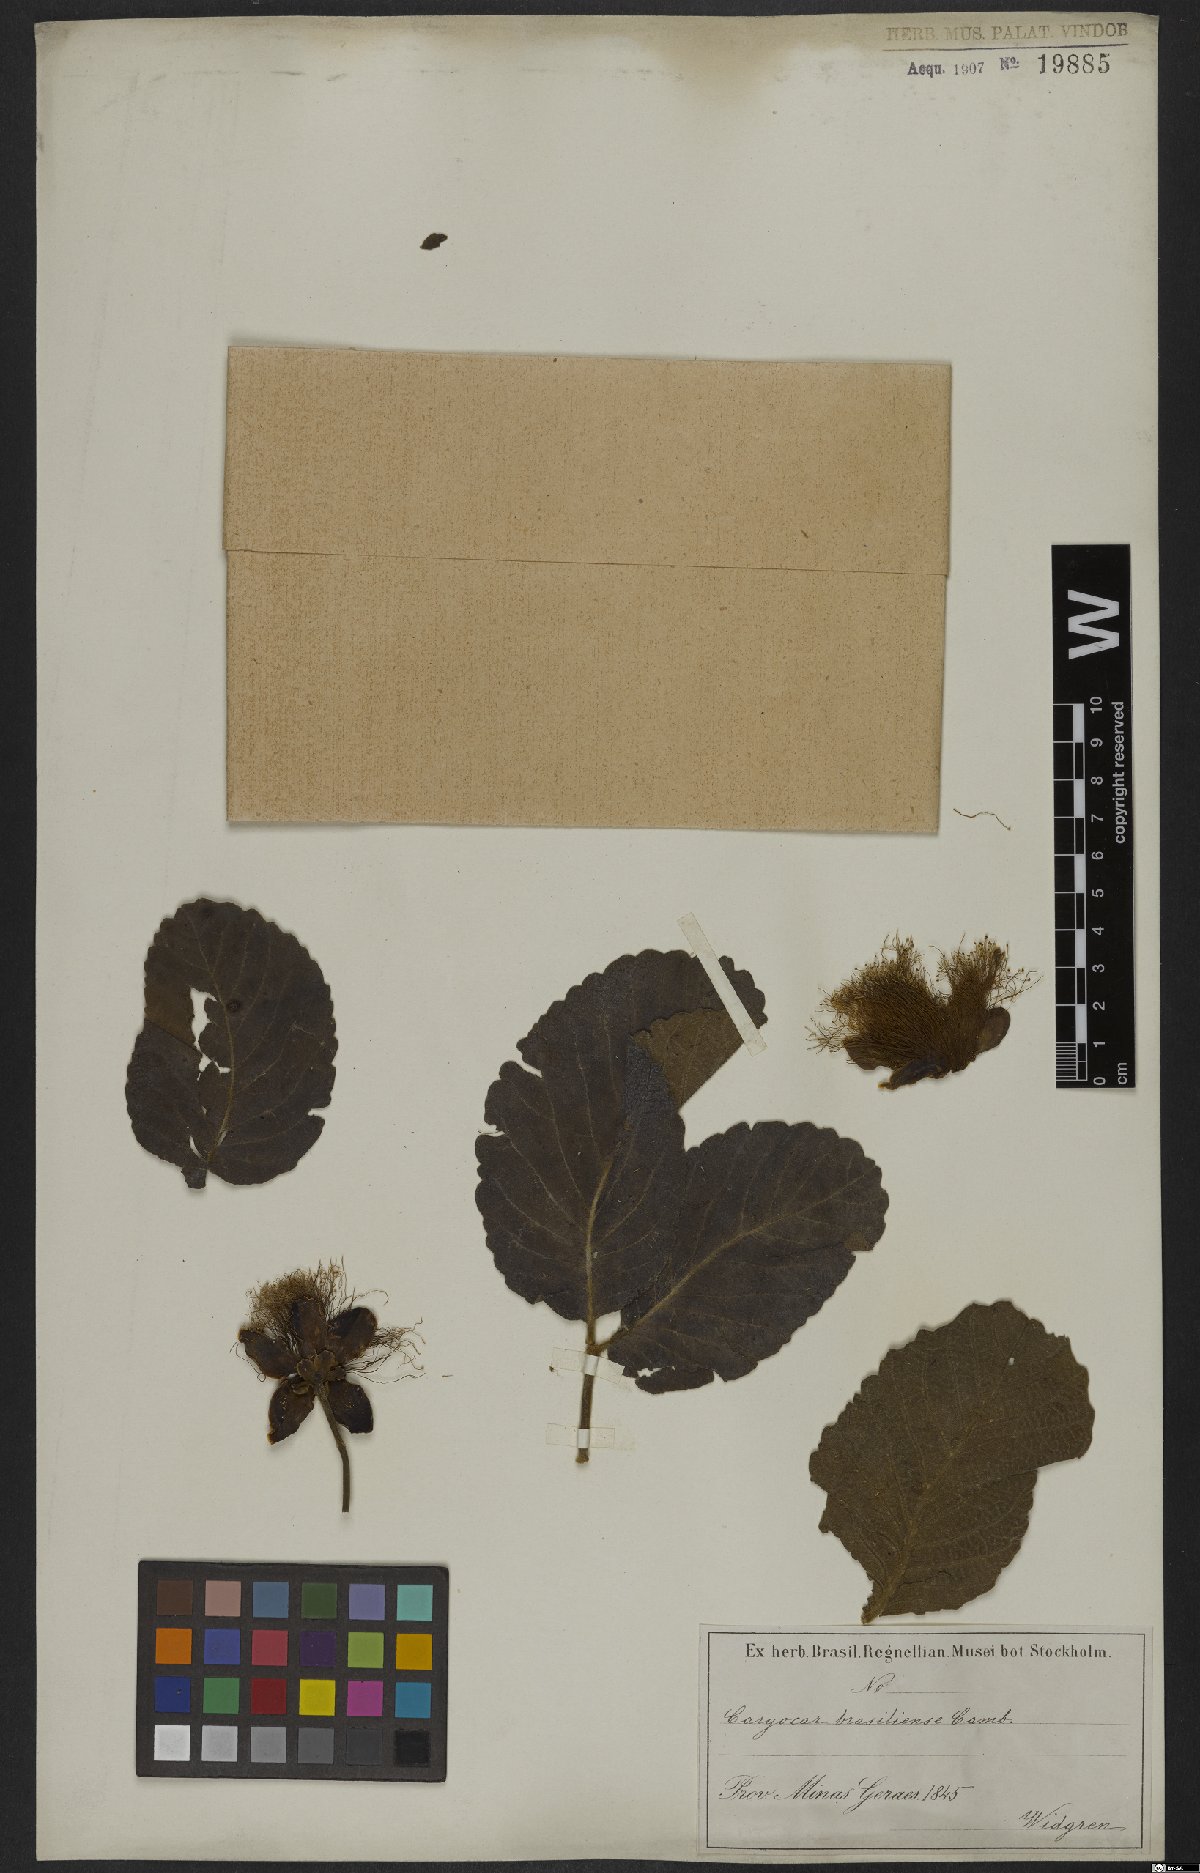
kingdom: Plantae
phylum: Tracheophyta
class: Magnoliopsida
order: Malpighiales
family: Caryocaraceae
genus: Caryocar
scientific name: Caryocar brasiliense
